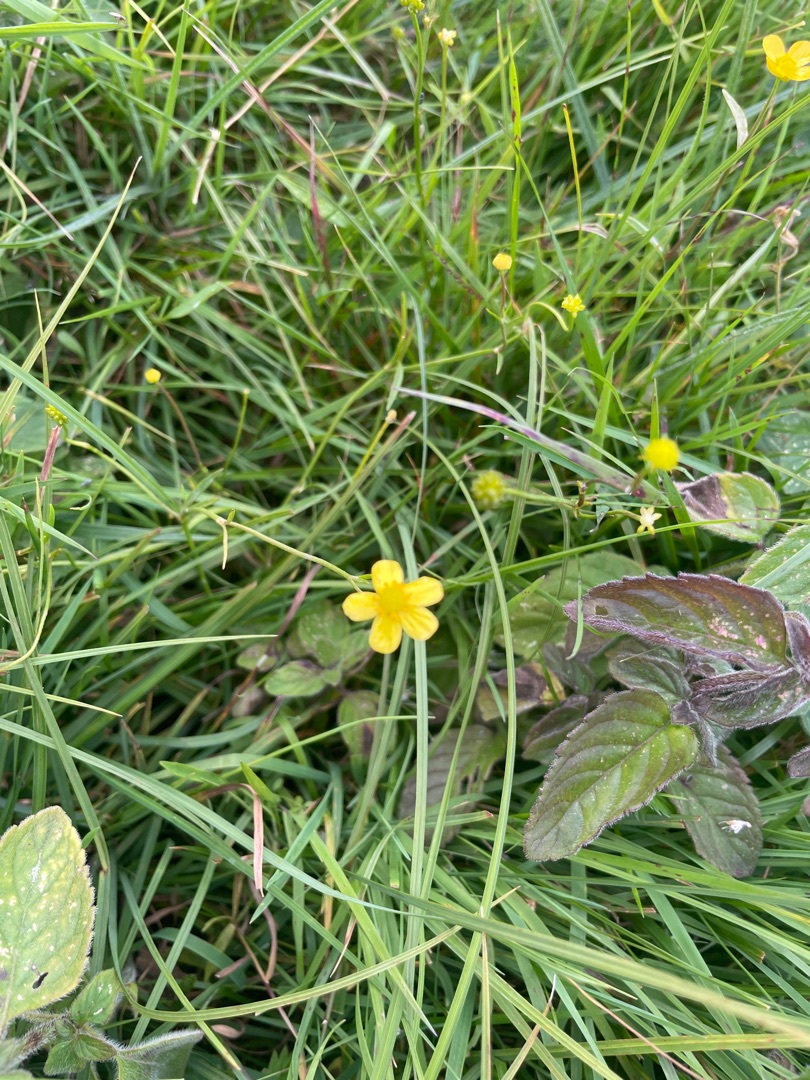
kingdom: Plantae
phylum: Tracheophyta
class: Magnoliopsida
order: Ranunculales
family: Ranunculaceae
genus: Ranunculus
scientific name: Ranunculus flammula
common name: Kær-ranunkel
